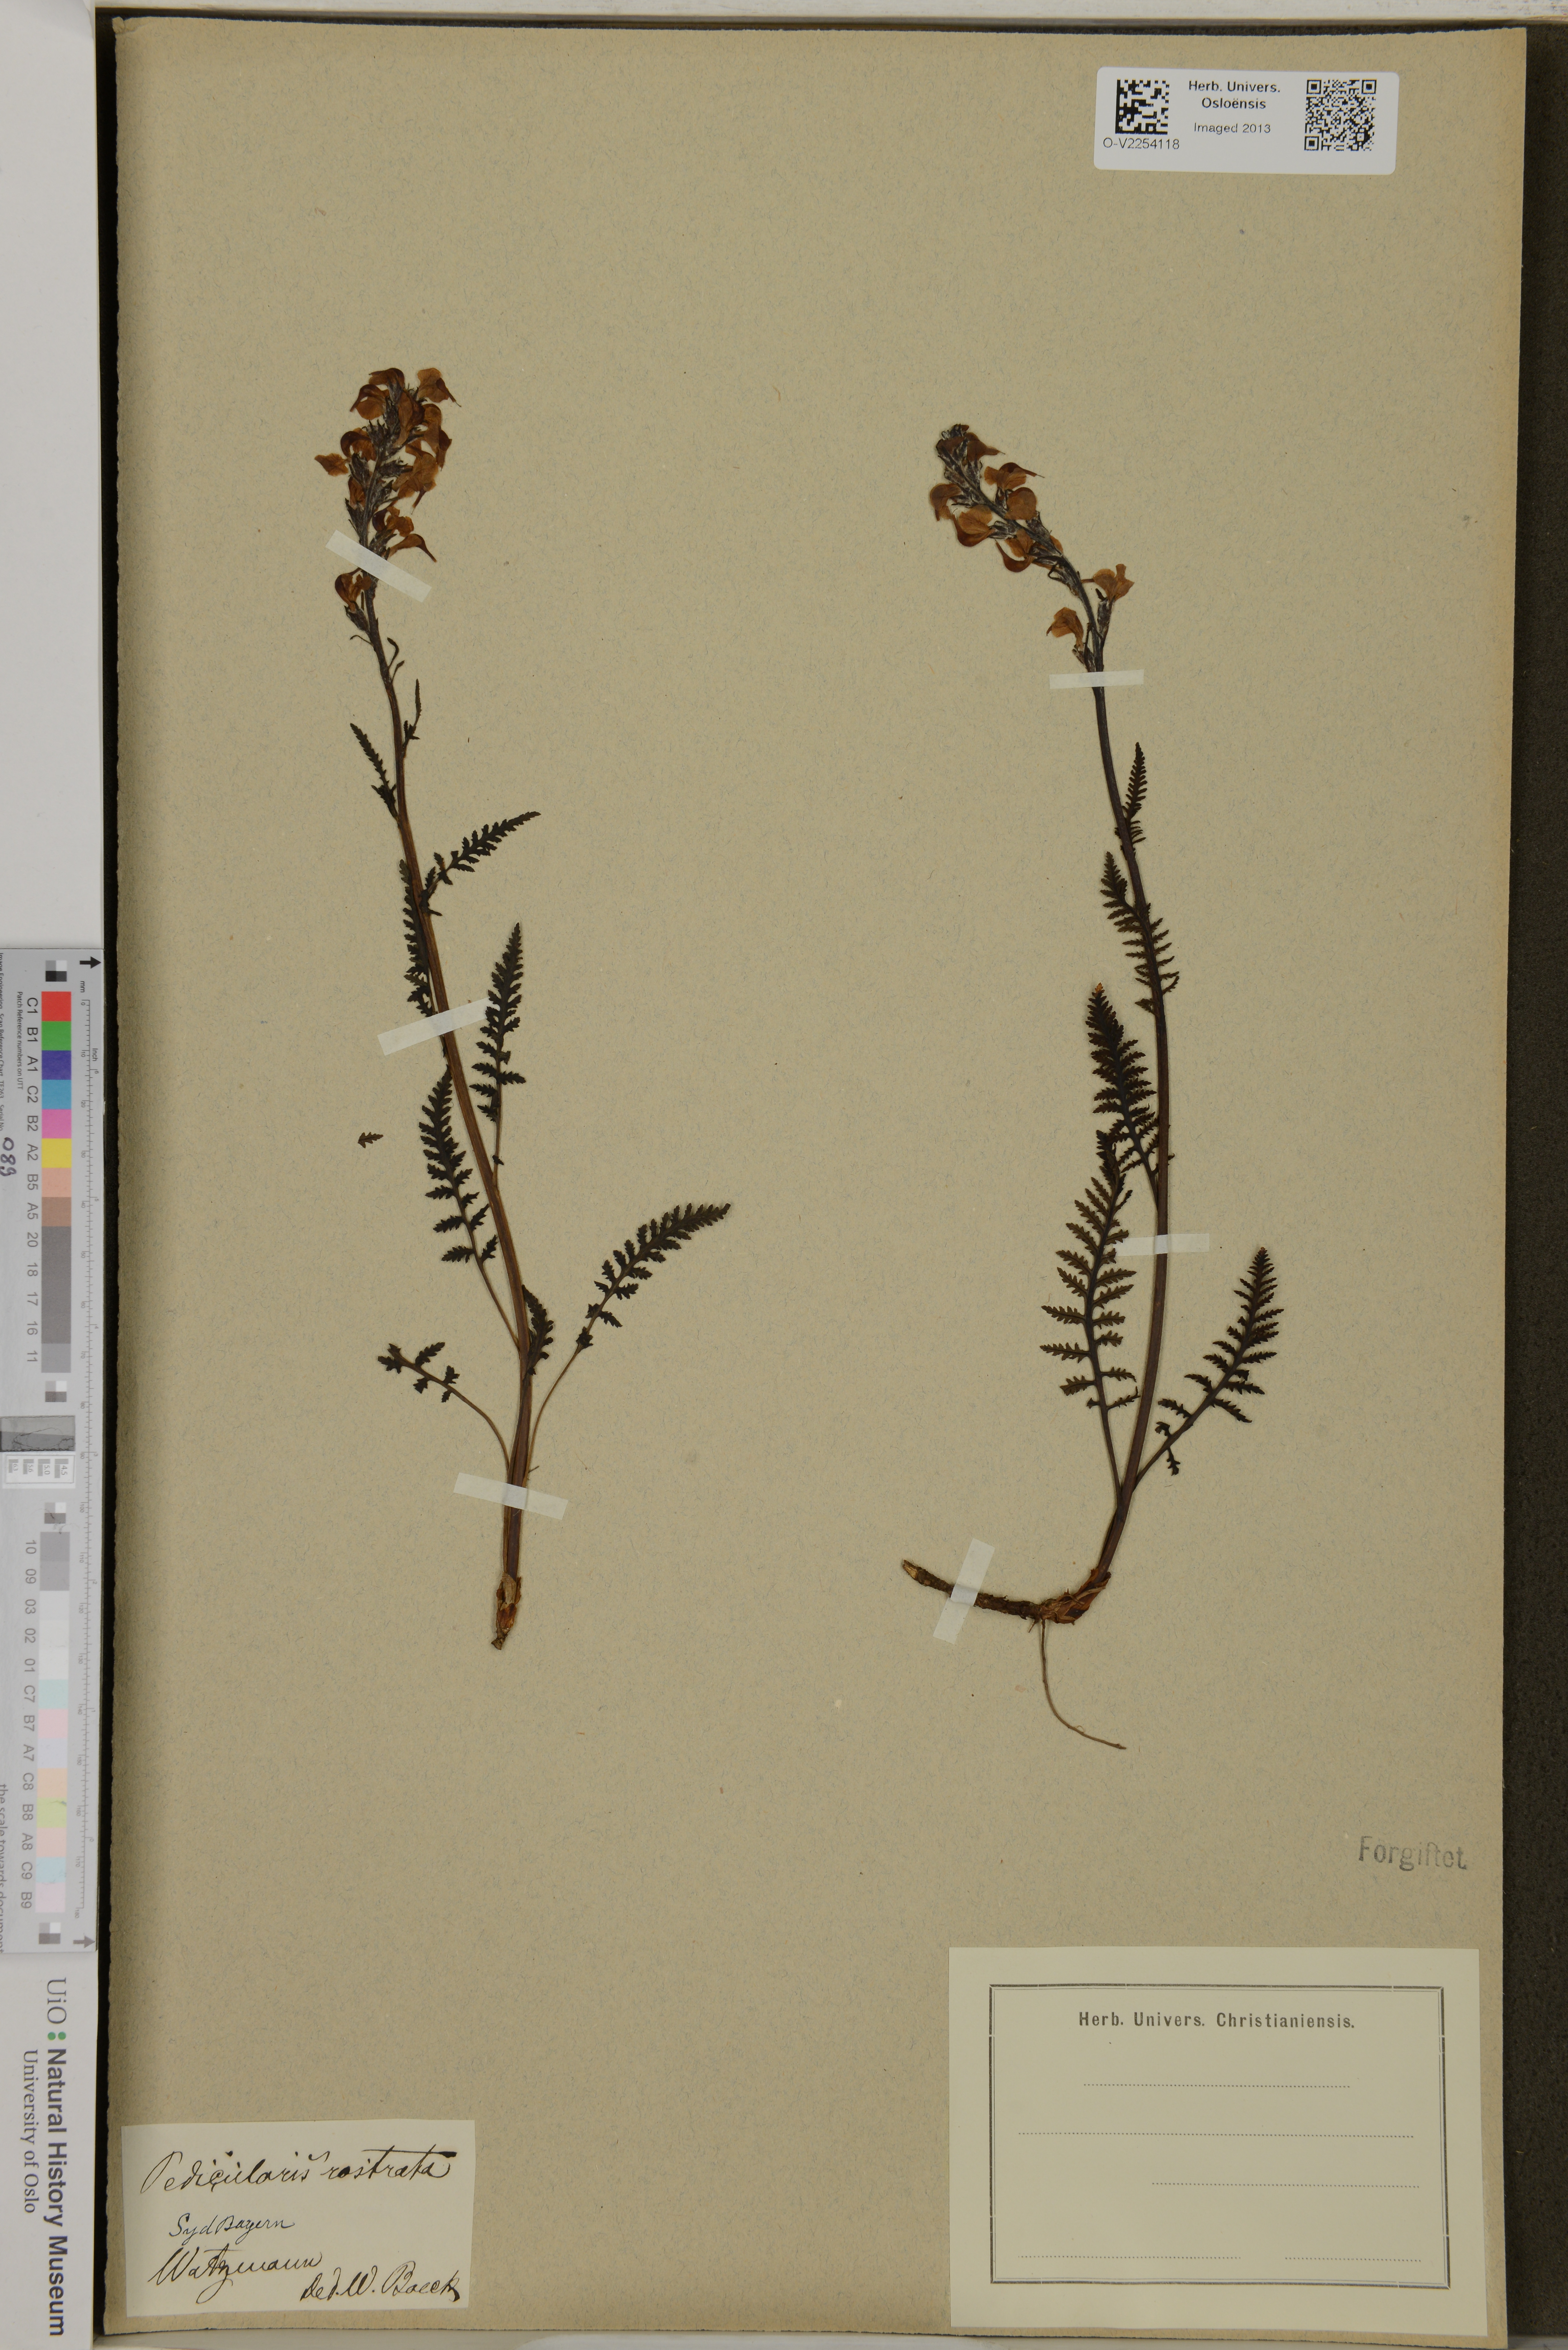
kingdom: Plantae
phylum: Tracheophyta
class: Magnoliopsida
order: Lamiales
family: Orobanchaceae
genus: Pedicularis
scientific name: Pedicularis
